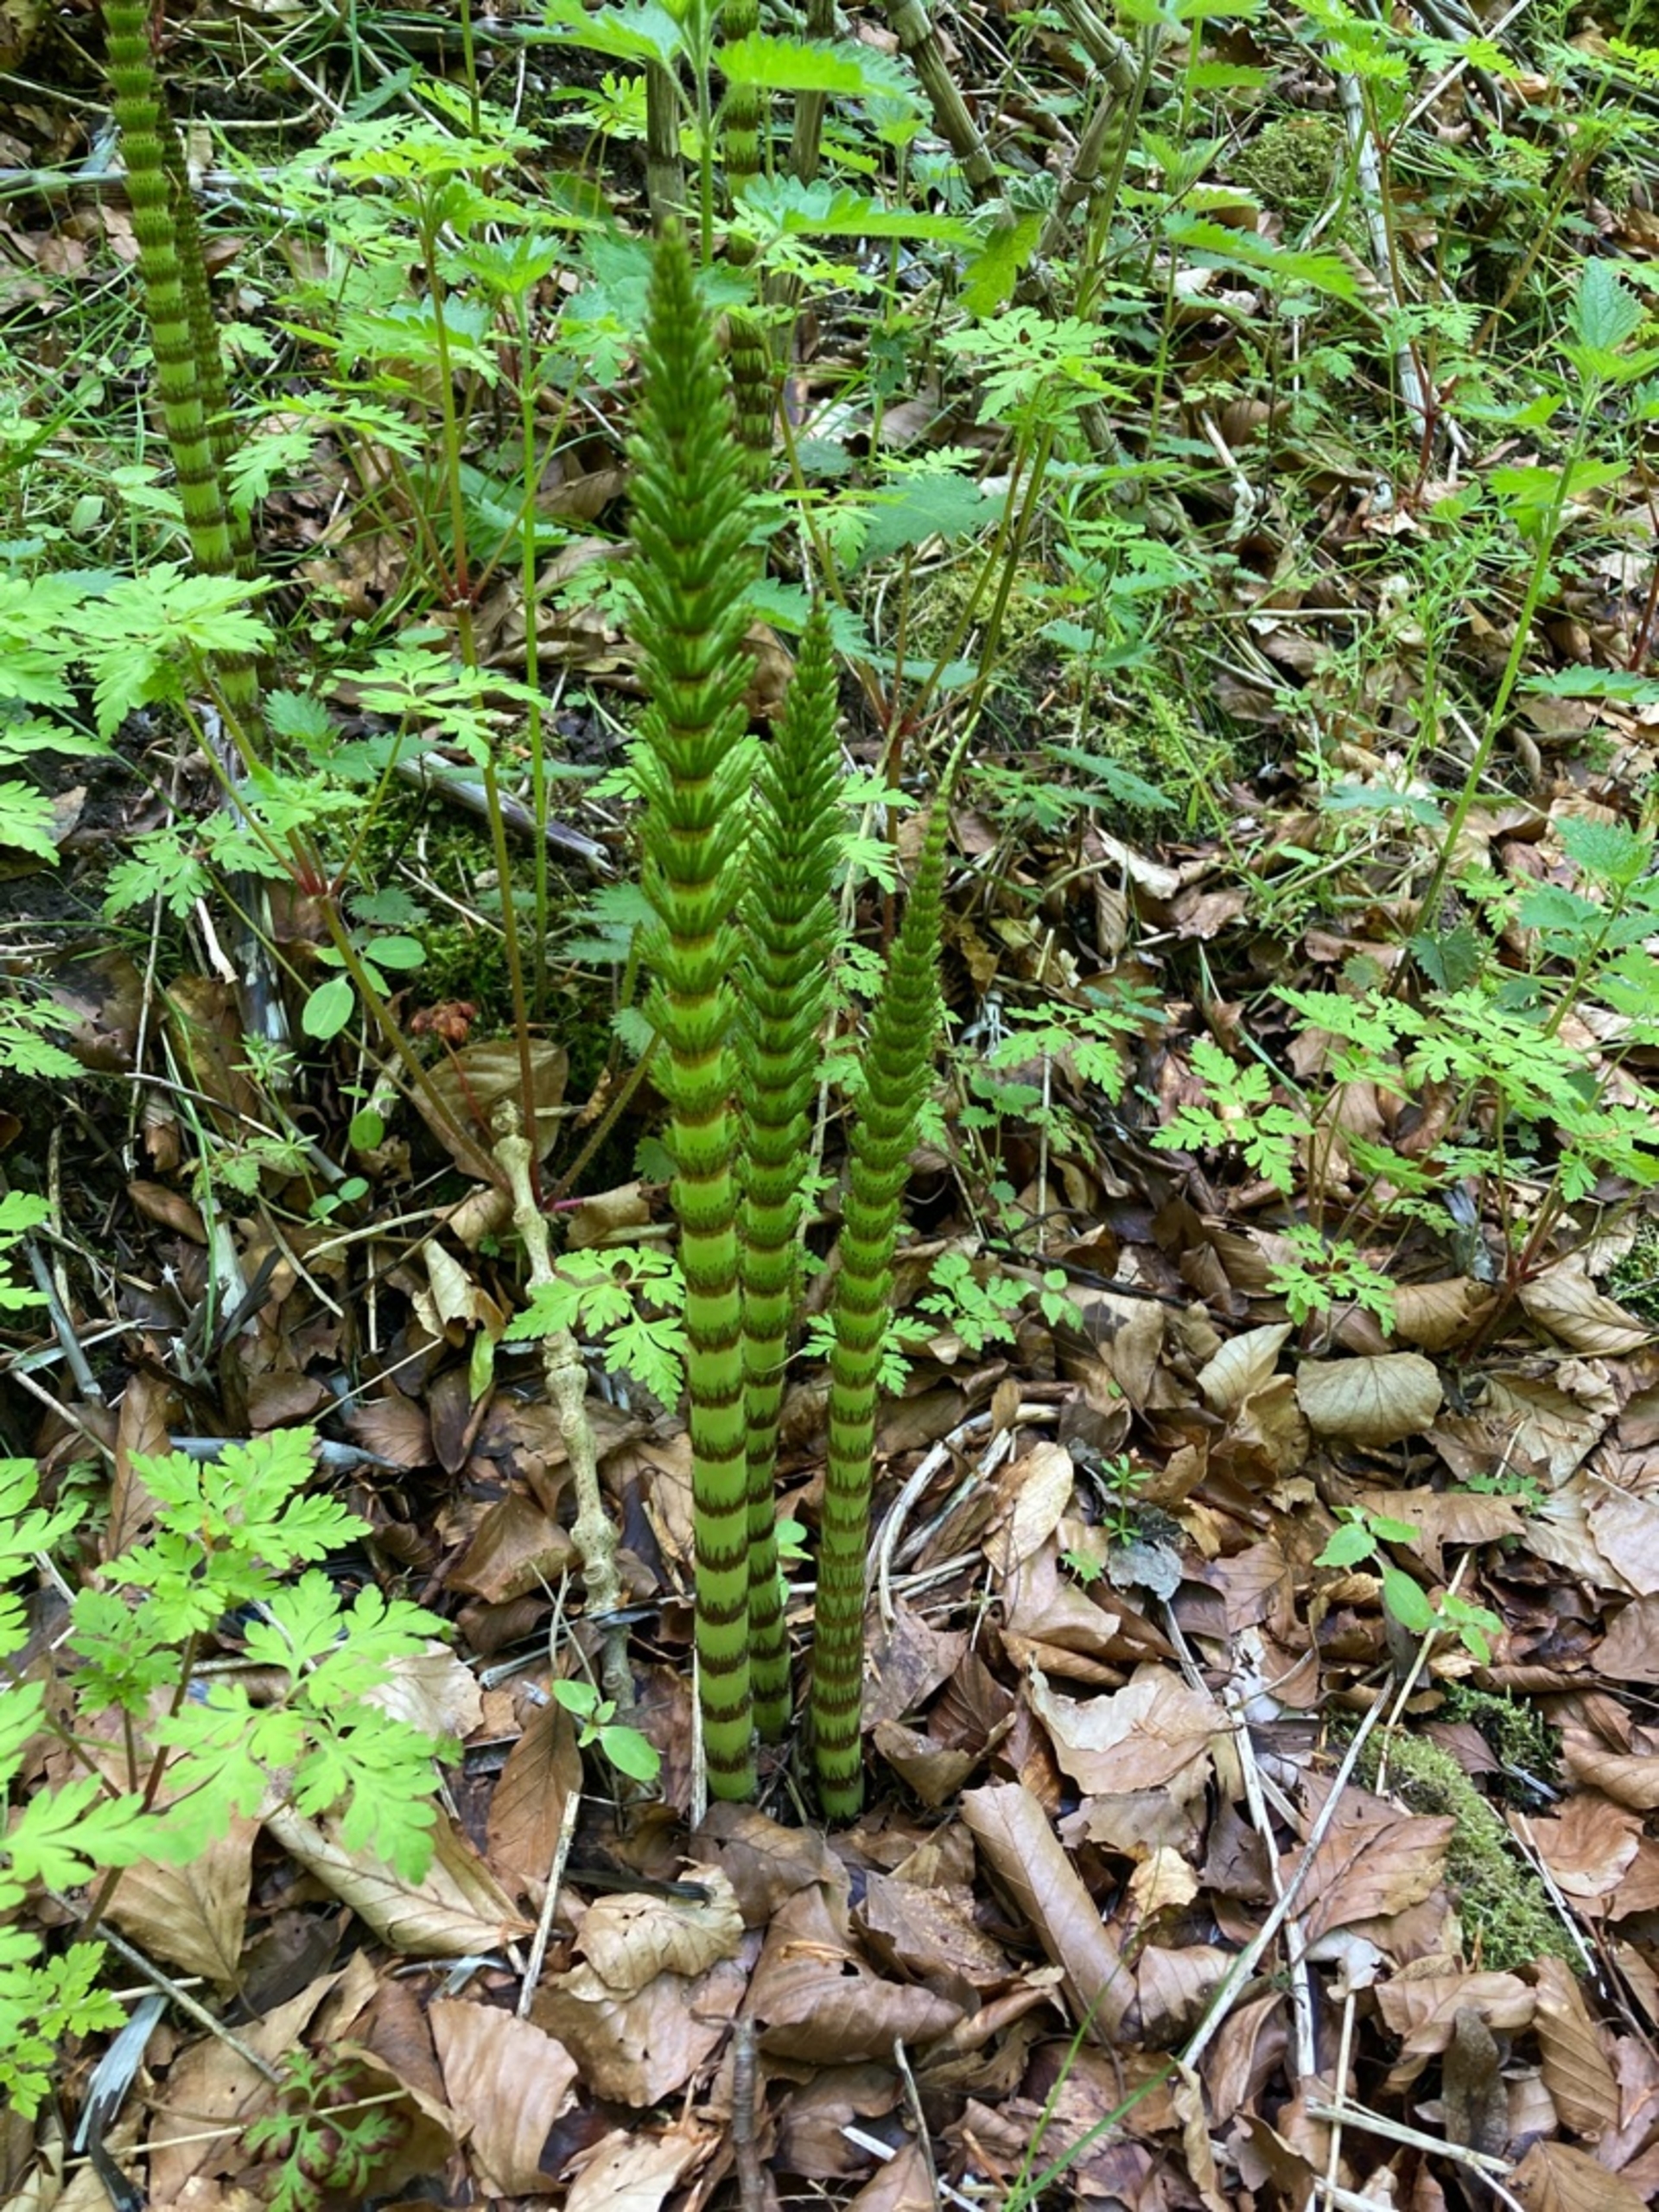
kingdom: Plantae
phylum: Tracheophyta
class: Polypodiopsida
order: Equisetales
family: Equisetaceae
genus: Equisetum
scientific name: Equisetum telmateia
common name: Elfenbens-padderok
